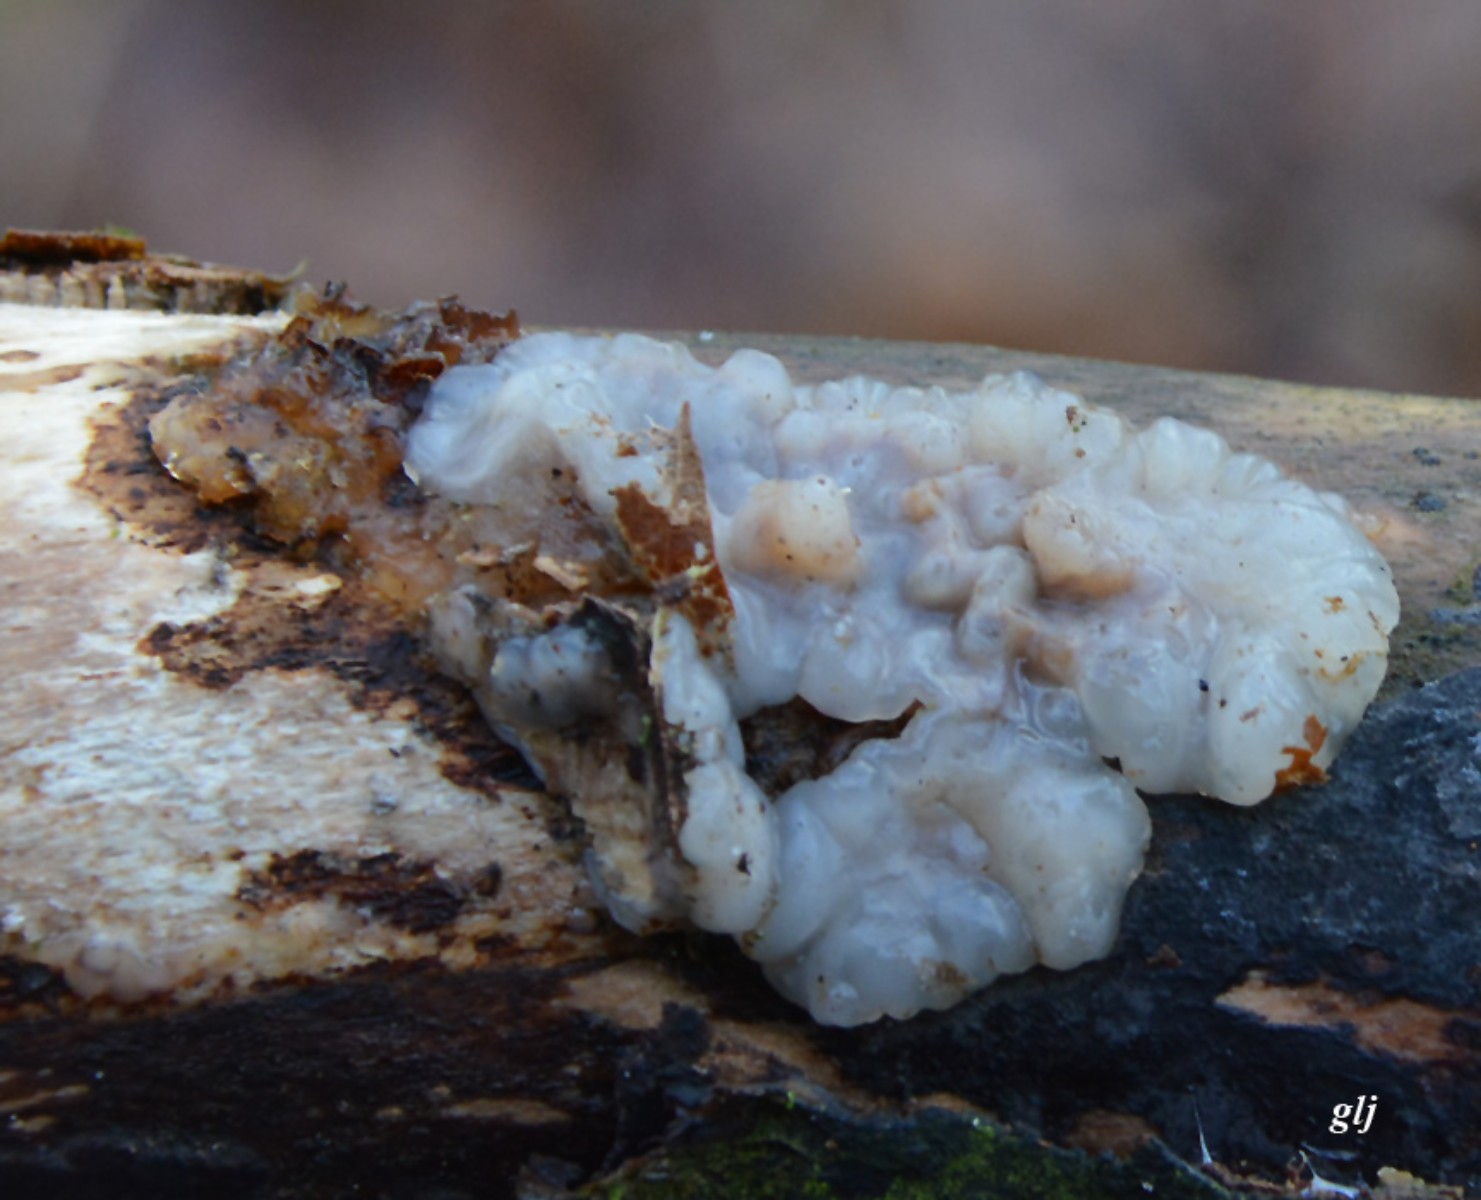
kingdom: Fungi
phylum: Basidiomycota
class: Agaricomycetes
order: Auriculariales
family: Auriculariaceae
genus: Exidia
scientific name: Exidia thuretiana
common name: hvidlig bævretop
